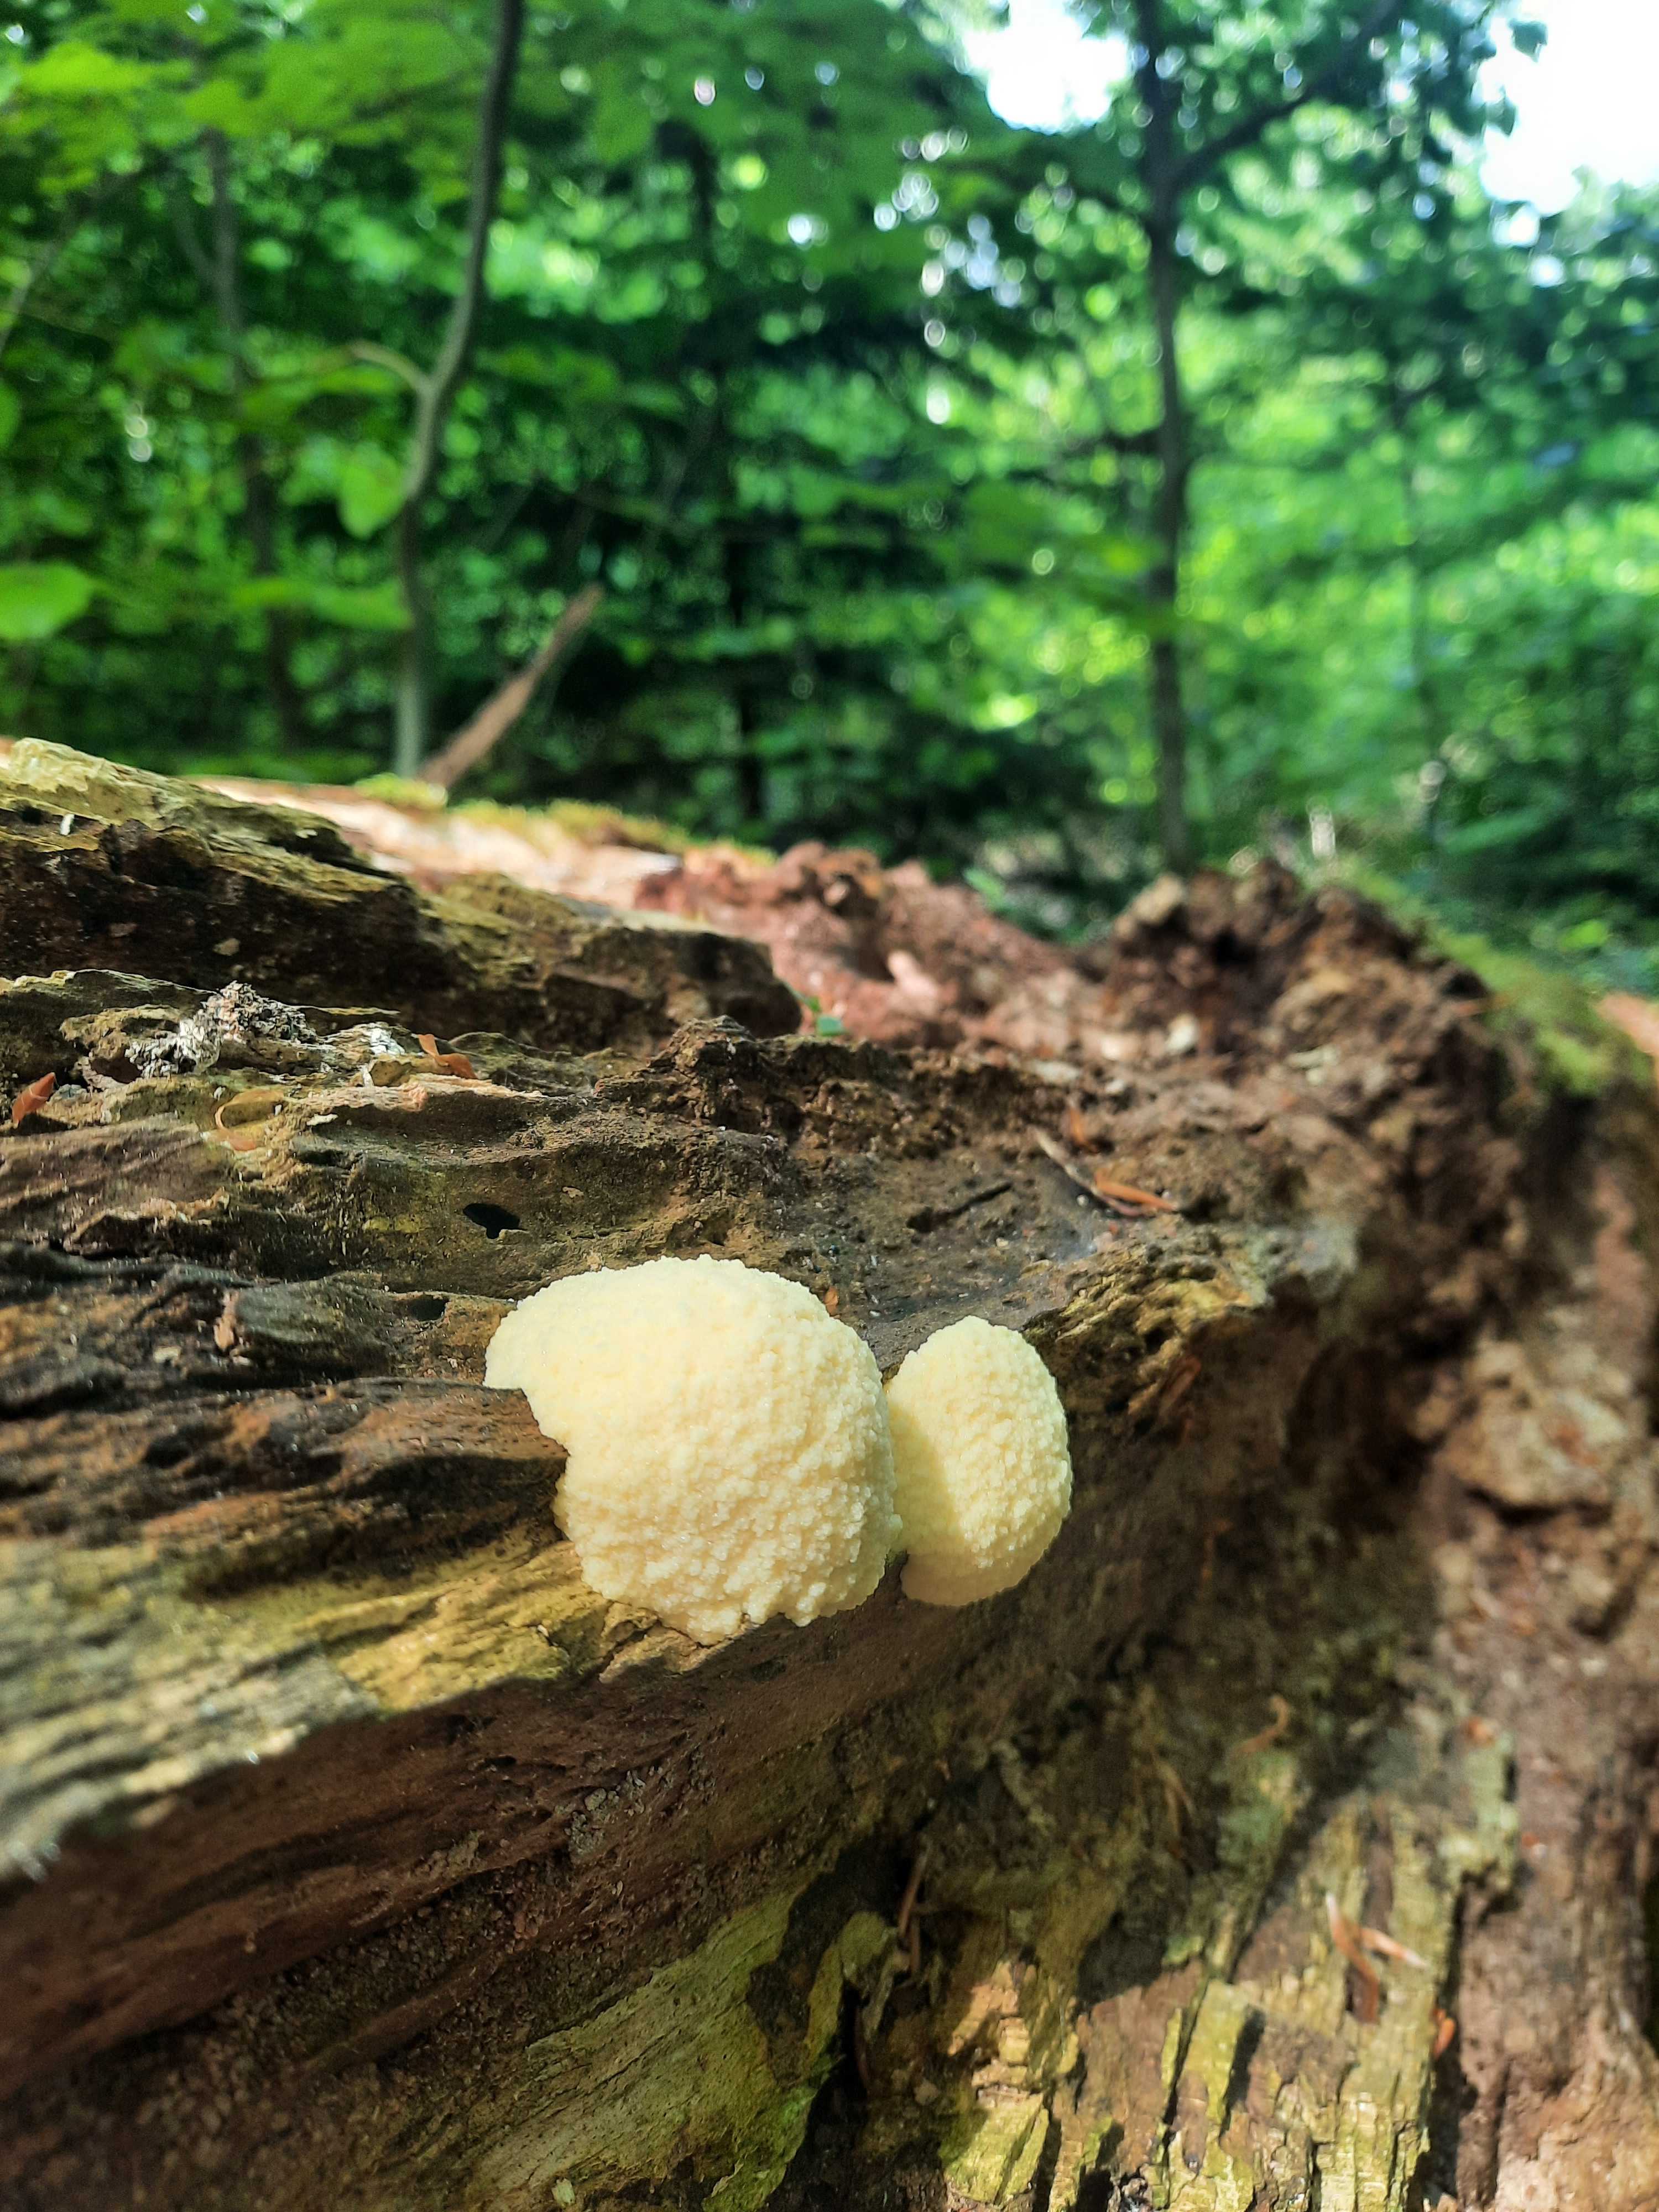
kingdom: Protozoa
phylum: Mycetozoa
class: Myxomycetes
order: Cribrariales
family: Tubiferaceae
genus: Reticularia
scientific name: Reticularia lycoperdon
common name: skinnende støvpude
